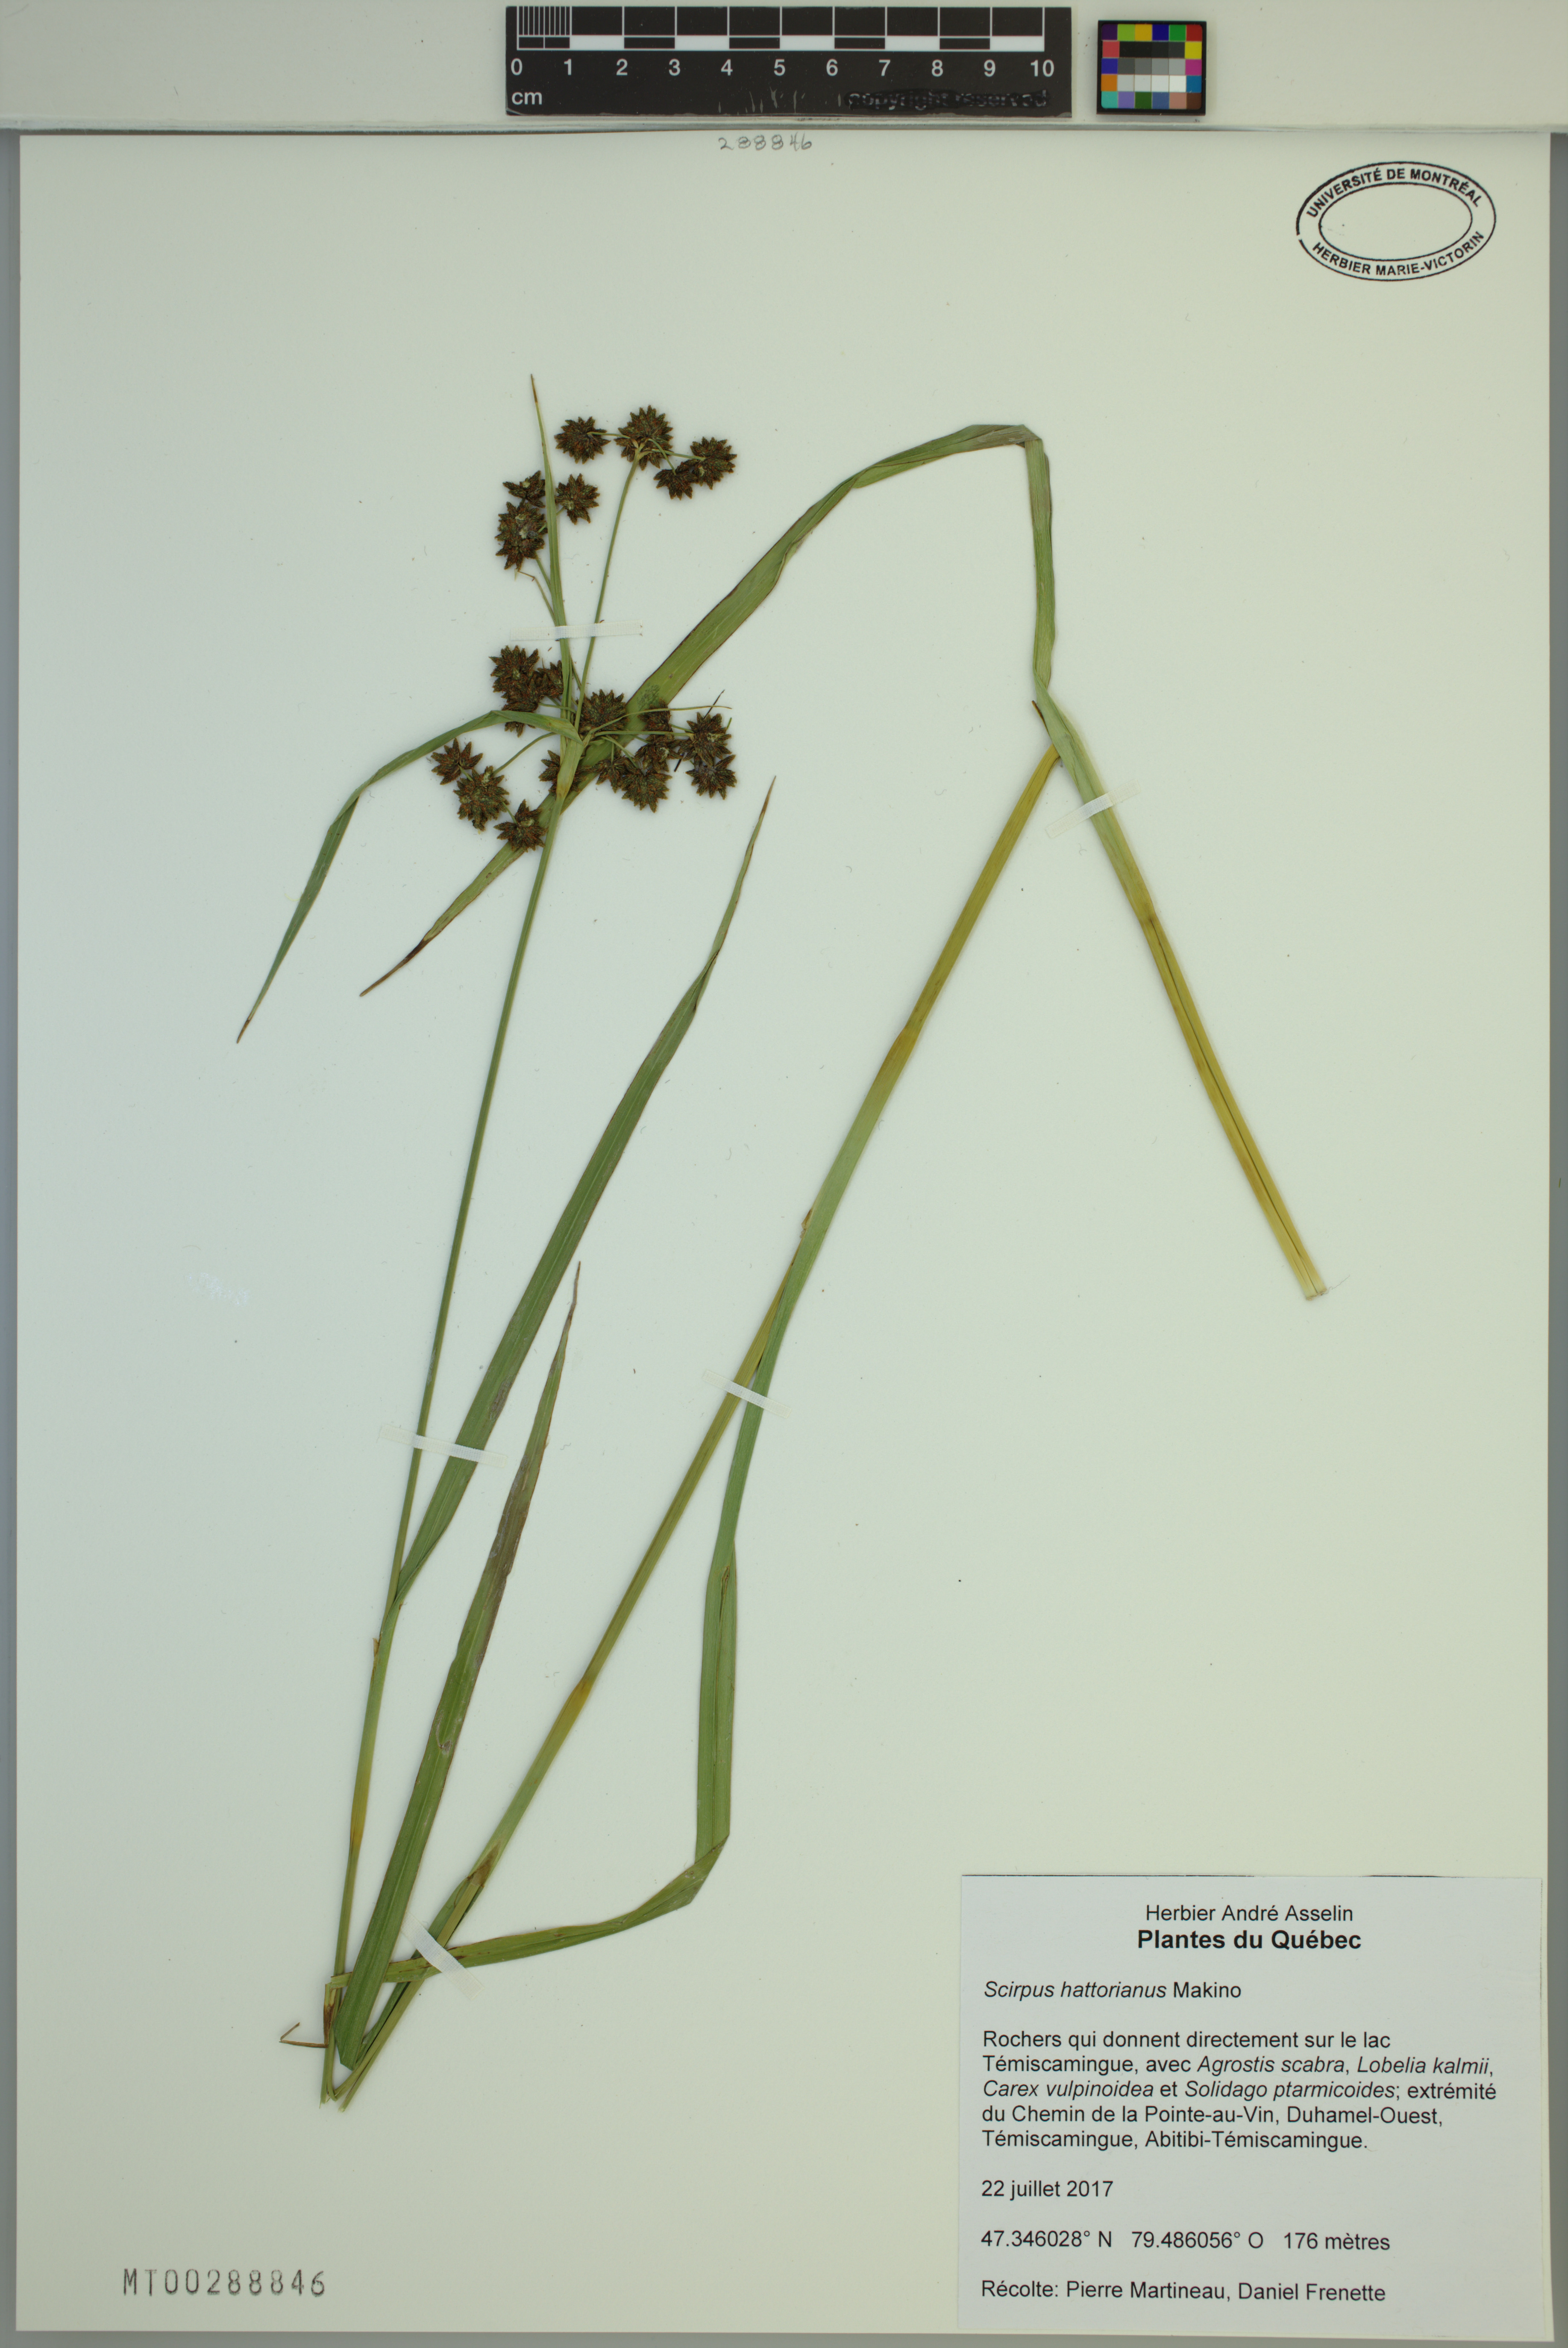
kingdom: Plantae
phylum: Tracheophyta
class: Liliopsida
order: Poales
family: Cyperaceae
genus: Scirpus
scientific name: Scirpus hattorianus
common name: Early dark-green bulrush
